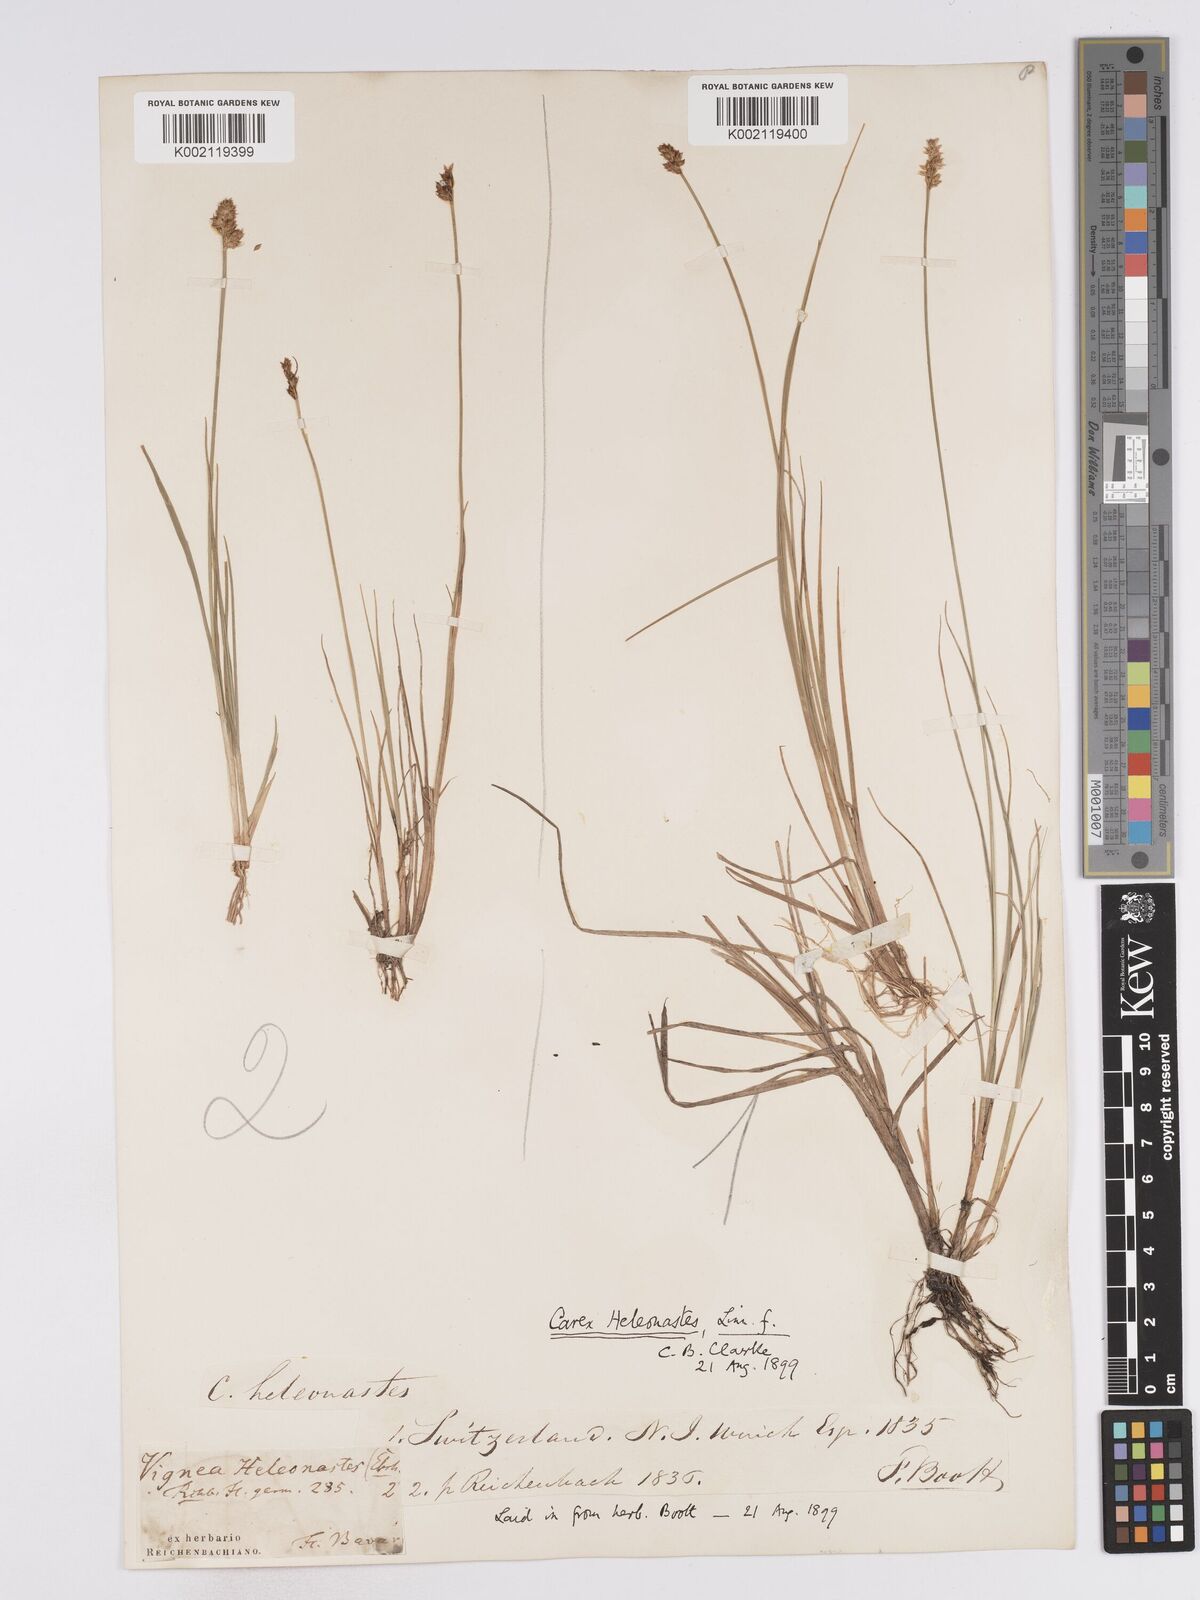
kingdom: Plantae
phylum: Tracheophyta
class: Liliopsida
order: Poales
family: Cyperaceae
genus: Carex
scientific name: Carex heleonastes
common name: Hudson bay sedge
